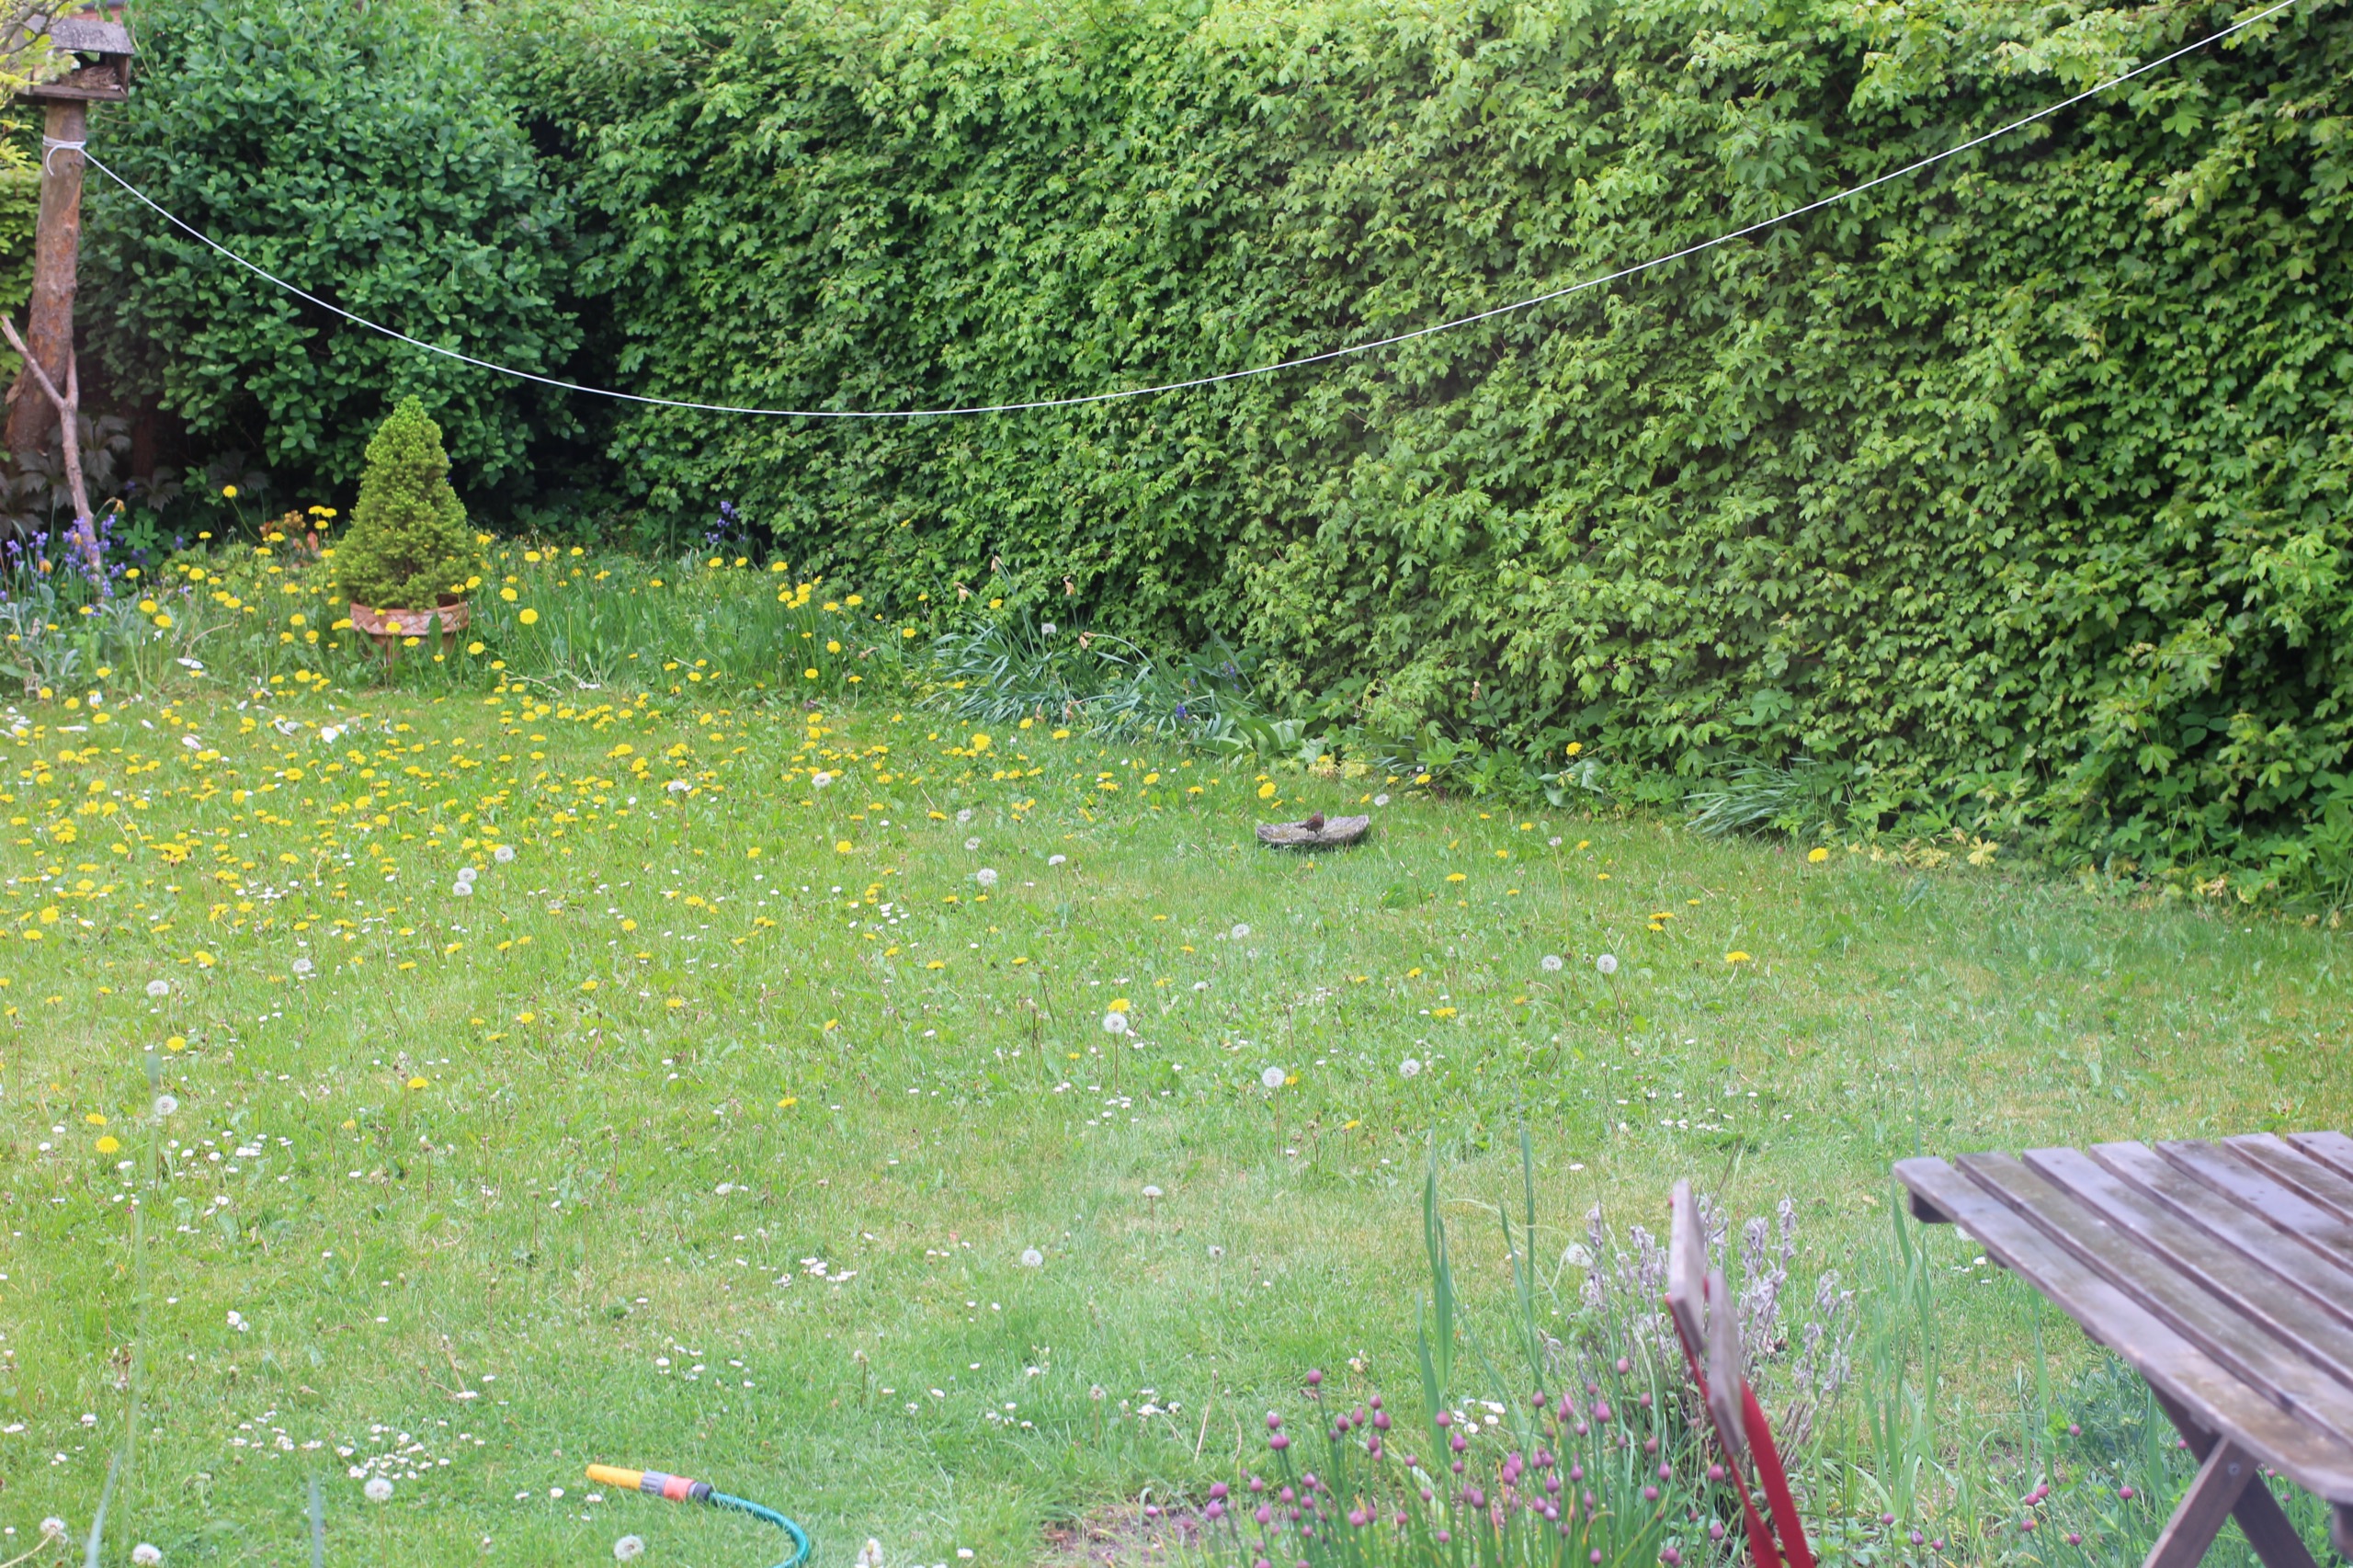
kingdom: Animalia
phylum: Chordata
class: Aves
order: Passeriformes
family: Prunellidae
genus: Prunella
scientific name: Prunella modularis
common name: Jernspurv
